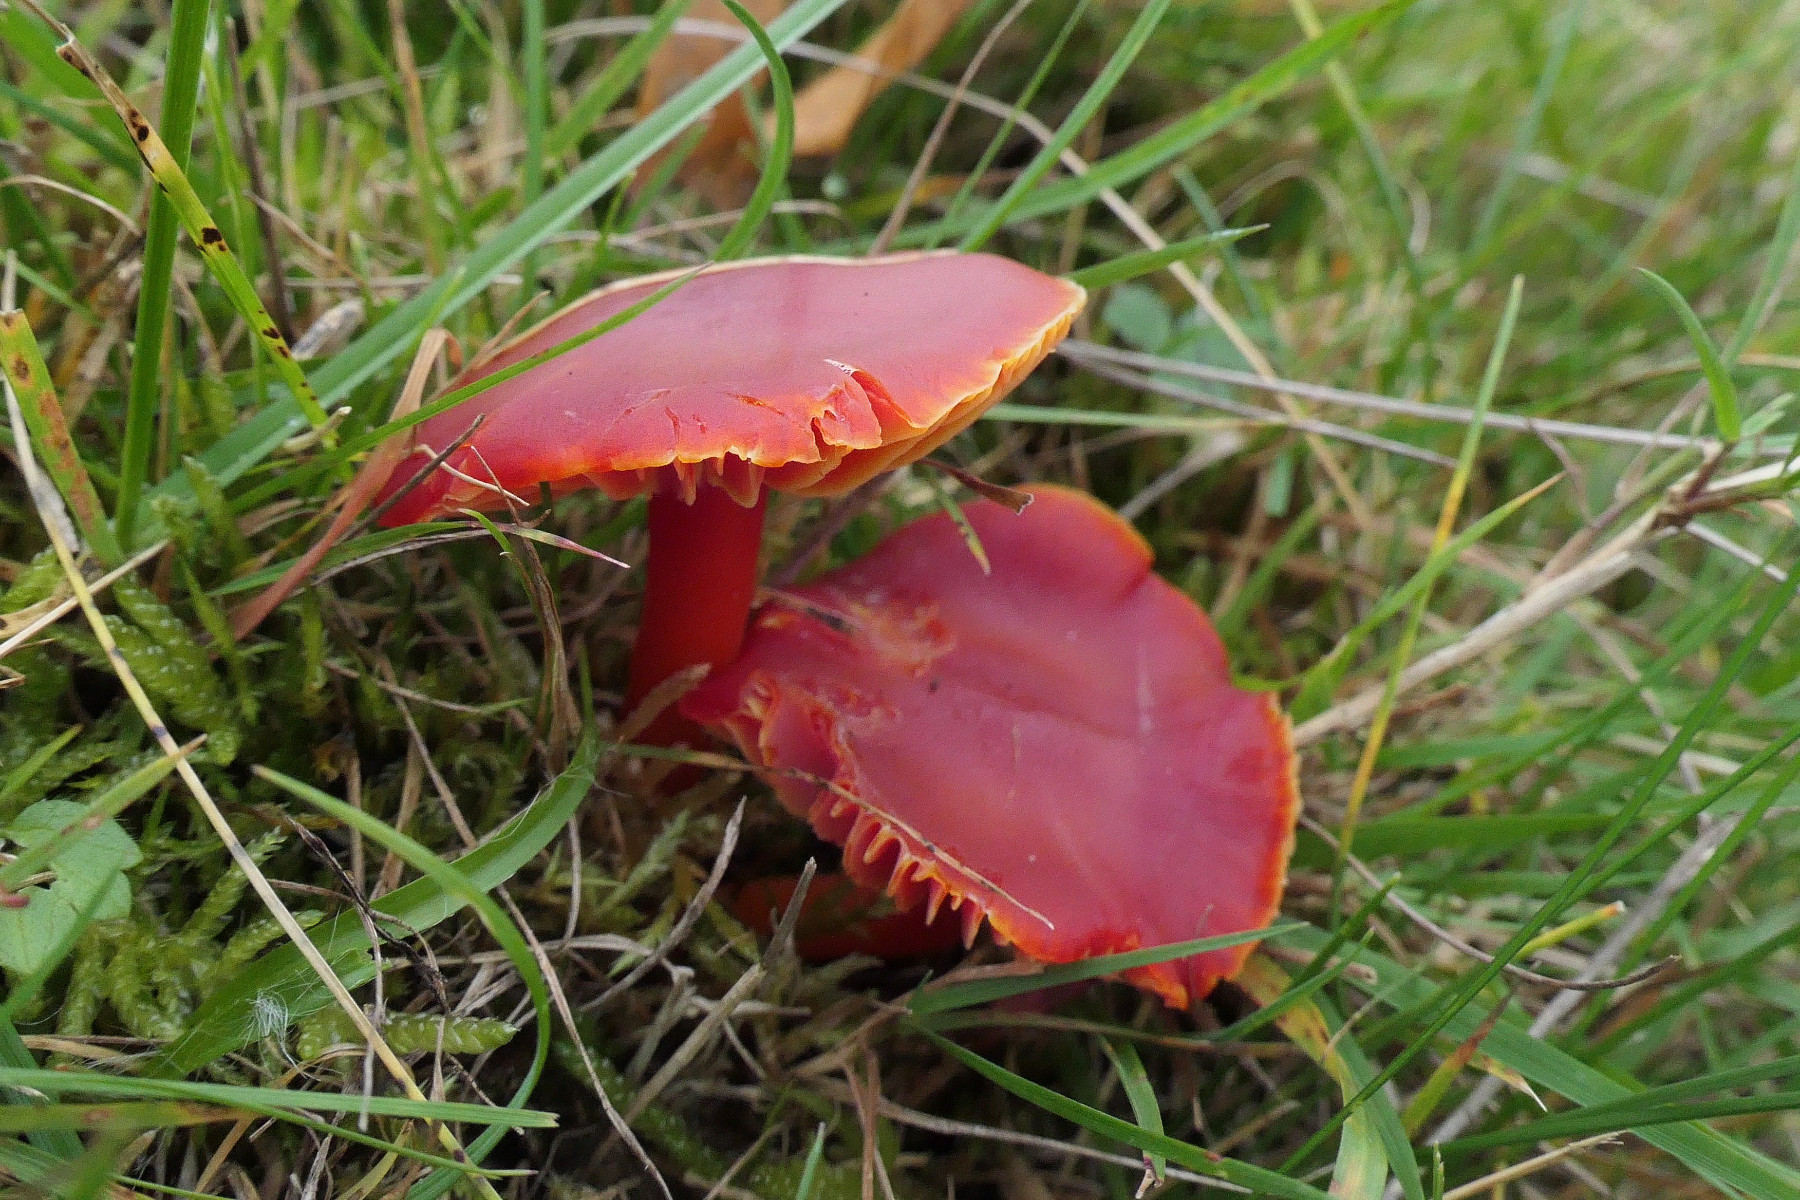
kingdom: Fungi
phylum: Basidiomycota
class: Agaricomycetes
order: Agaricales
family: Hygrophoraceae
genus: Hygrocybe
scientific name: Hygrocybe coccinea
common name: cinnober-vokshat
